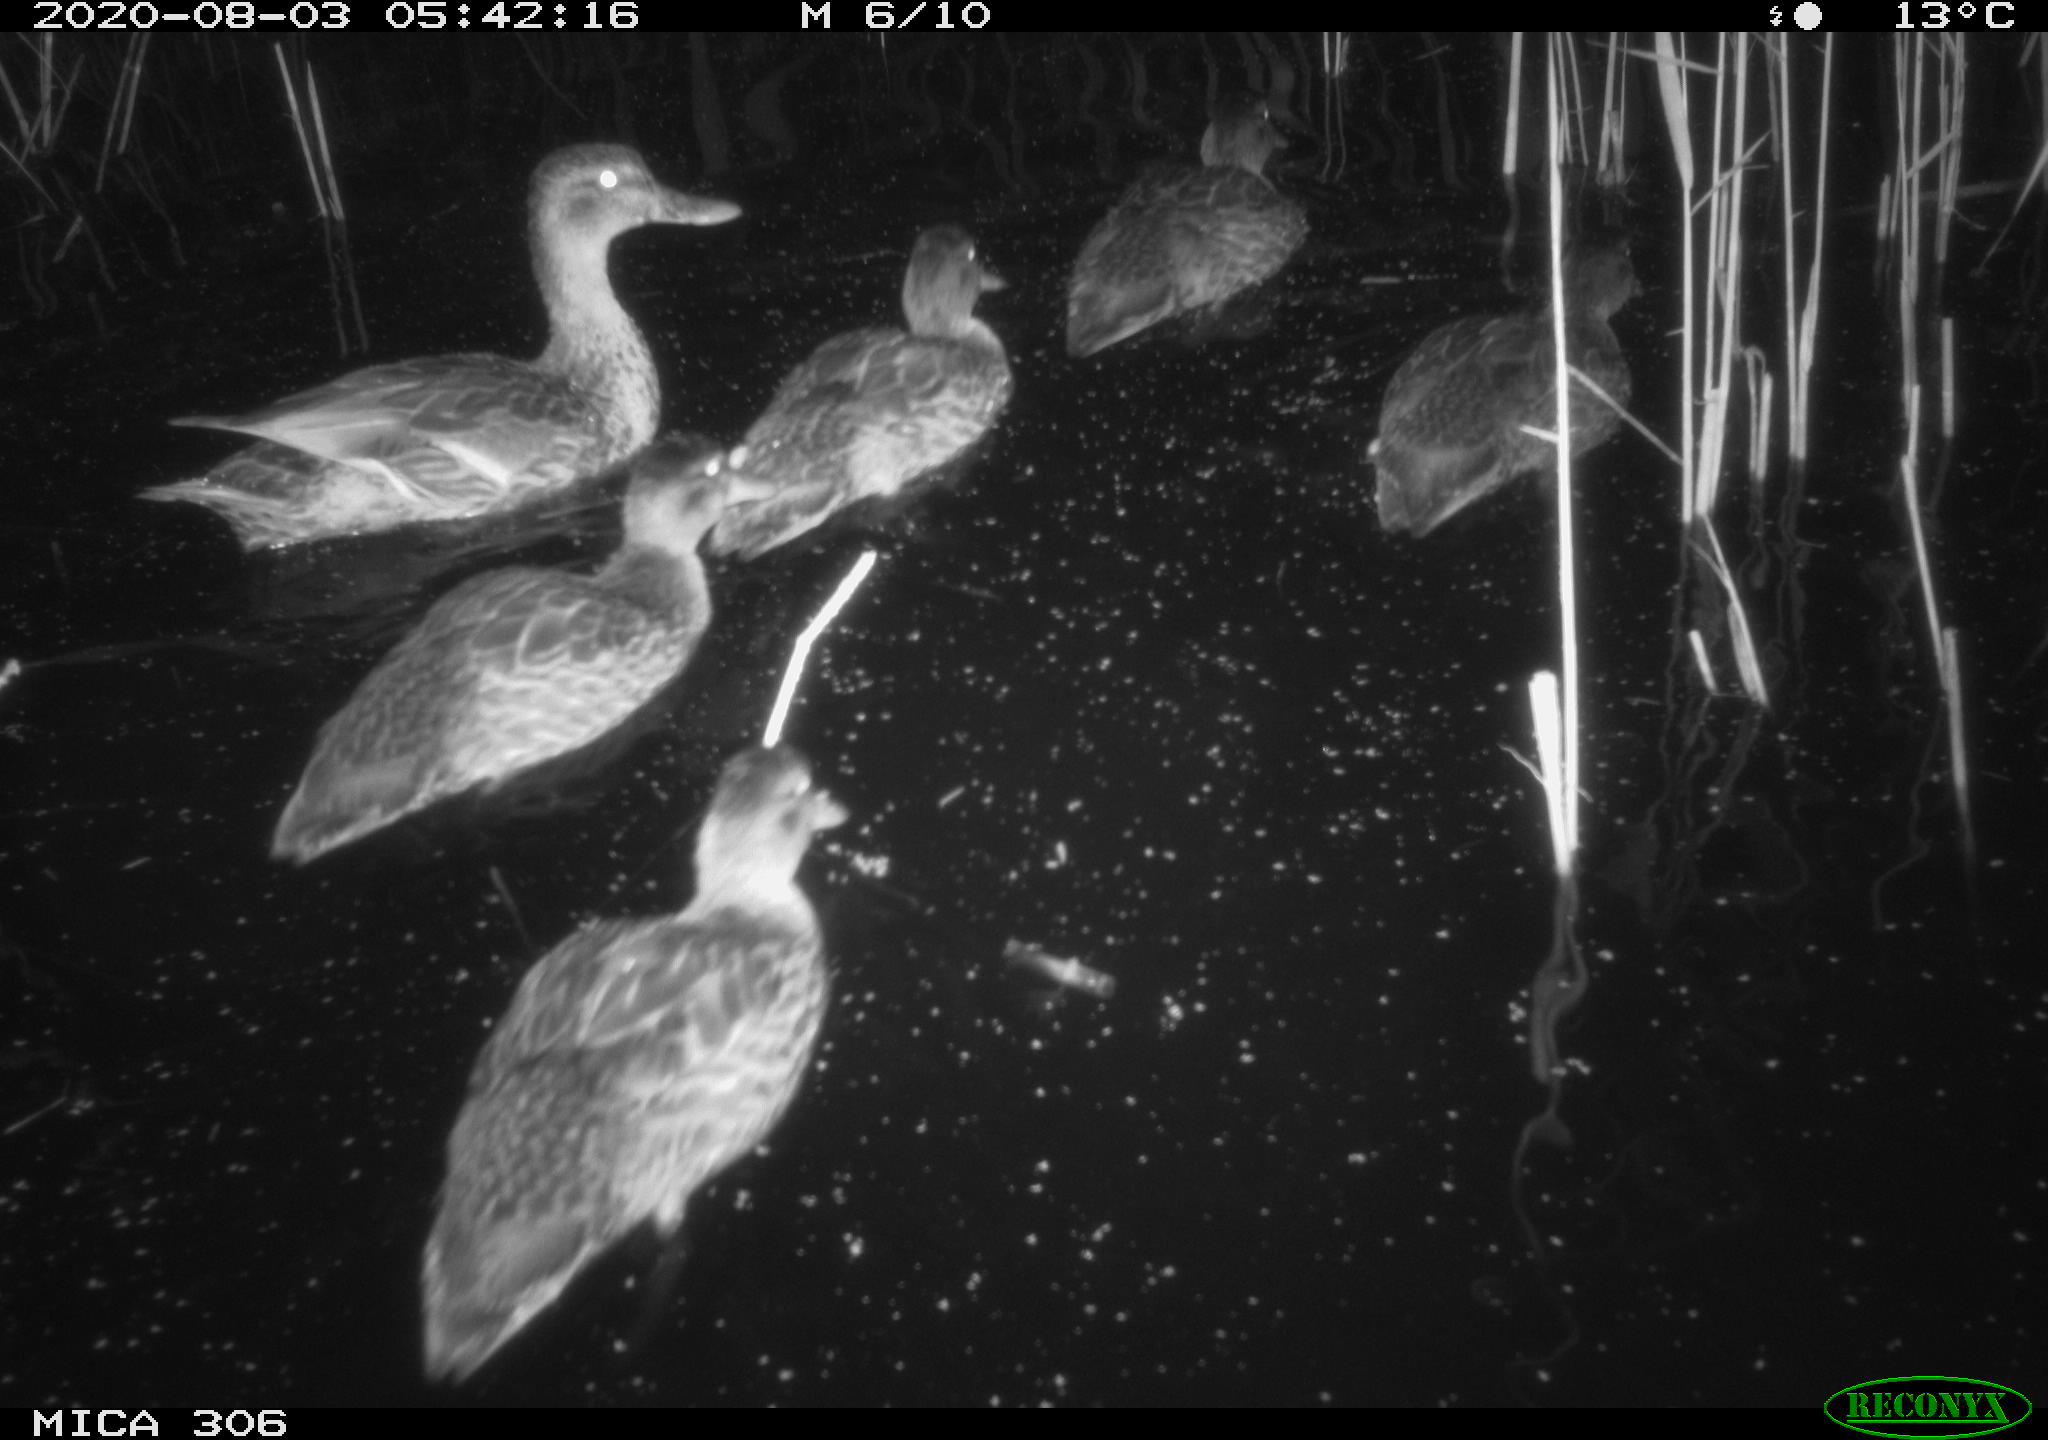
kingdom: Animalia
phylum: Chordata
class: Aves
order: Anseriformes
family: Anatidae
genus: Anas
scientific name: Anas platyrhynchos
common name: Mallard
